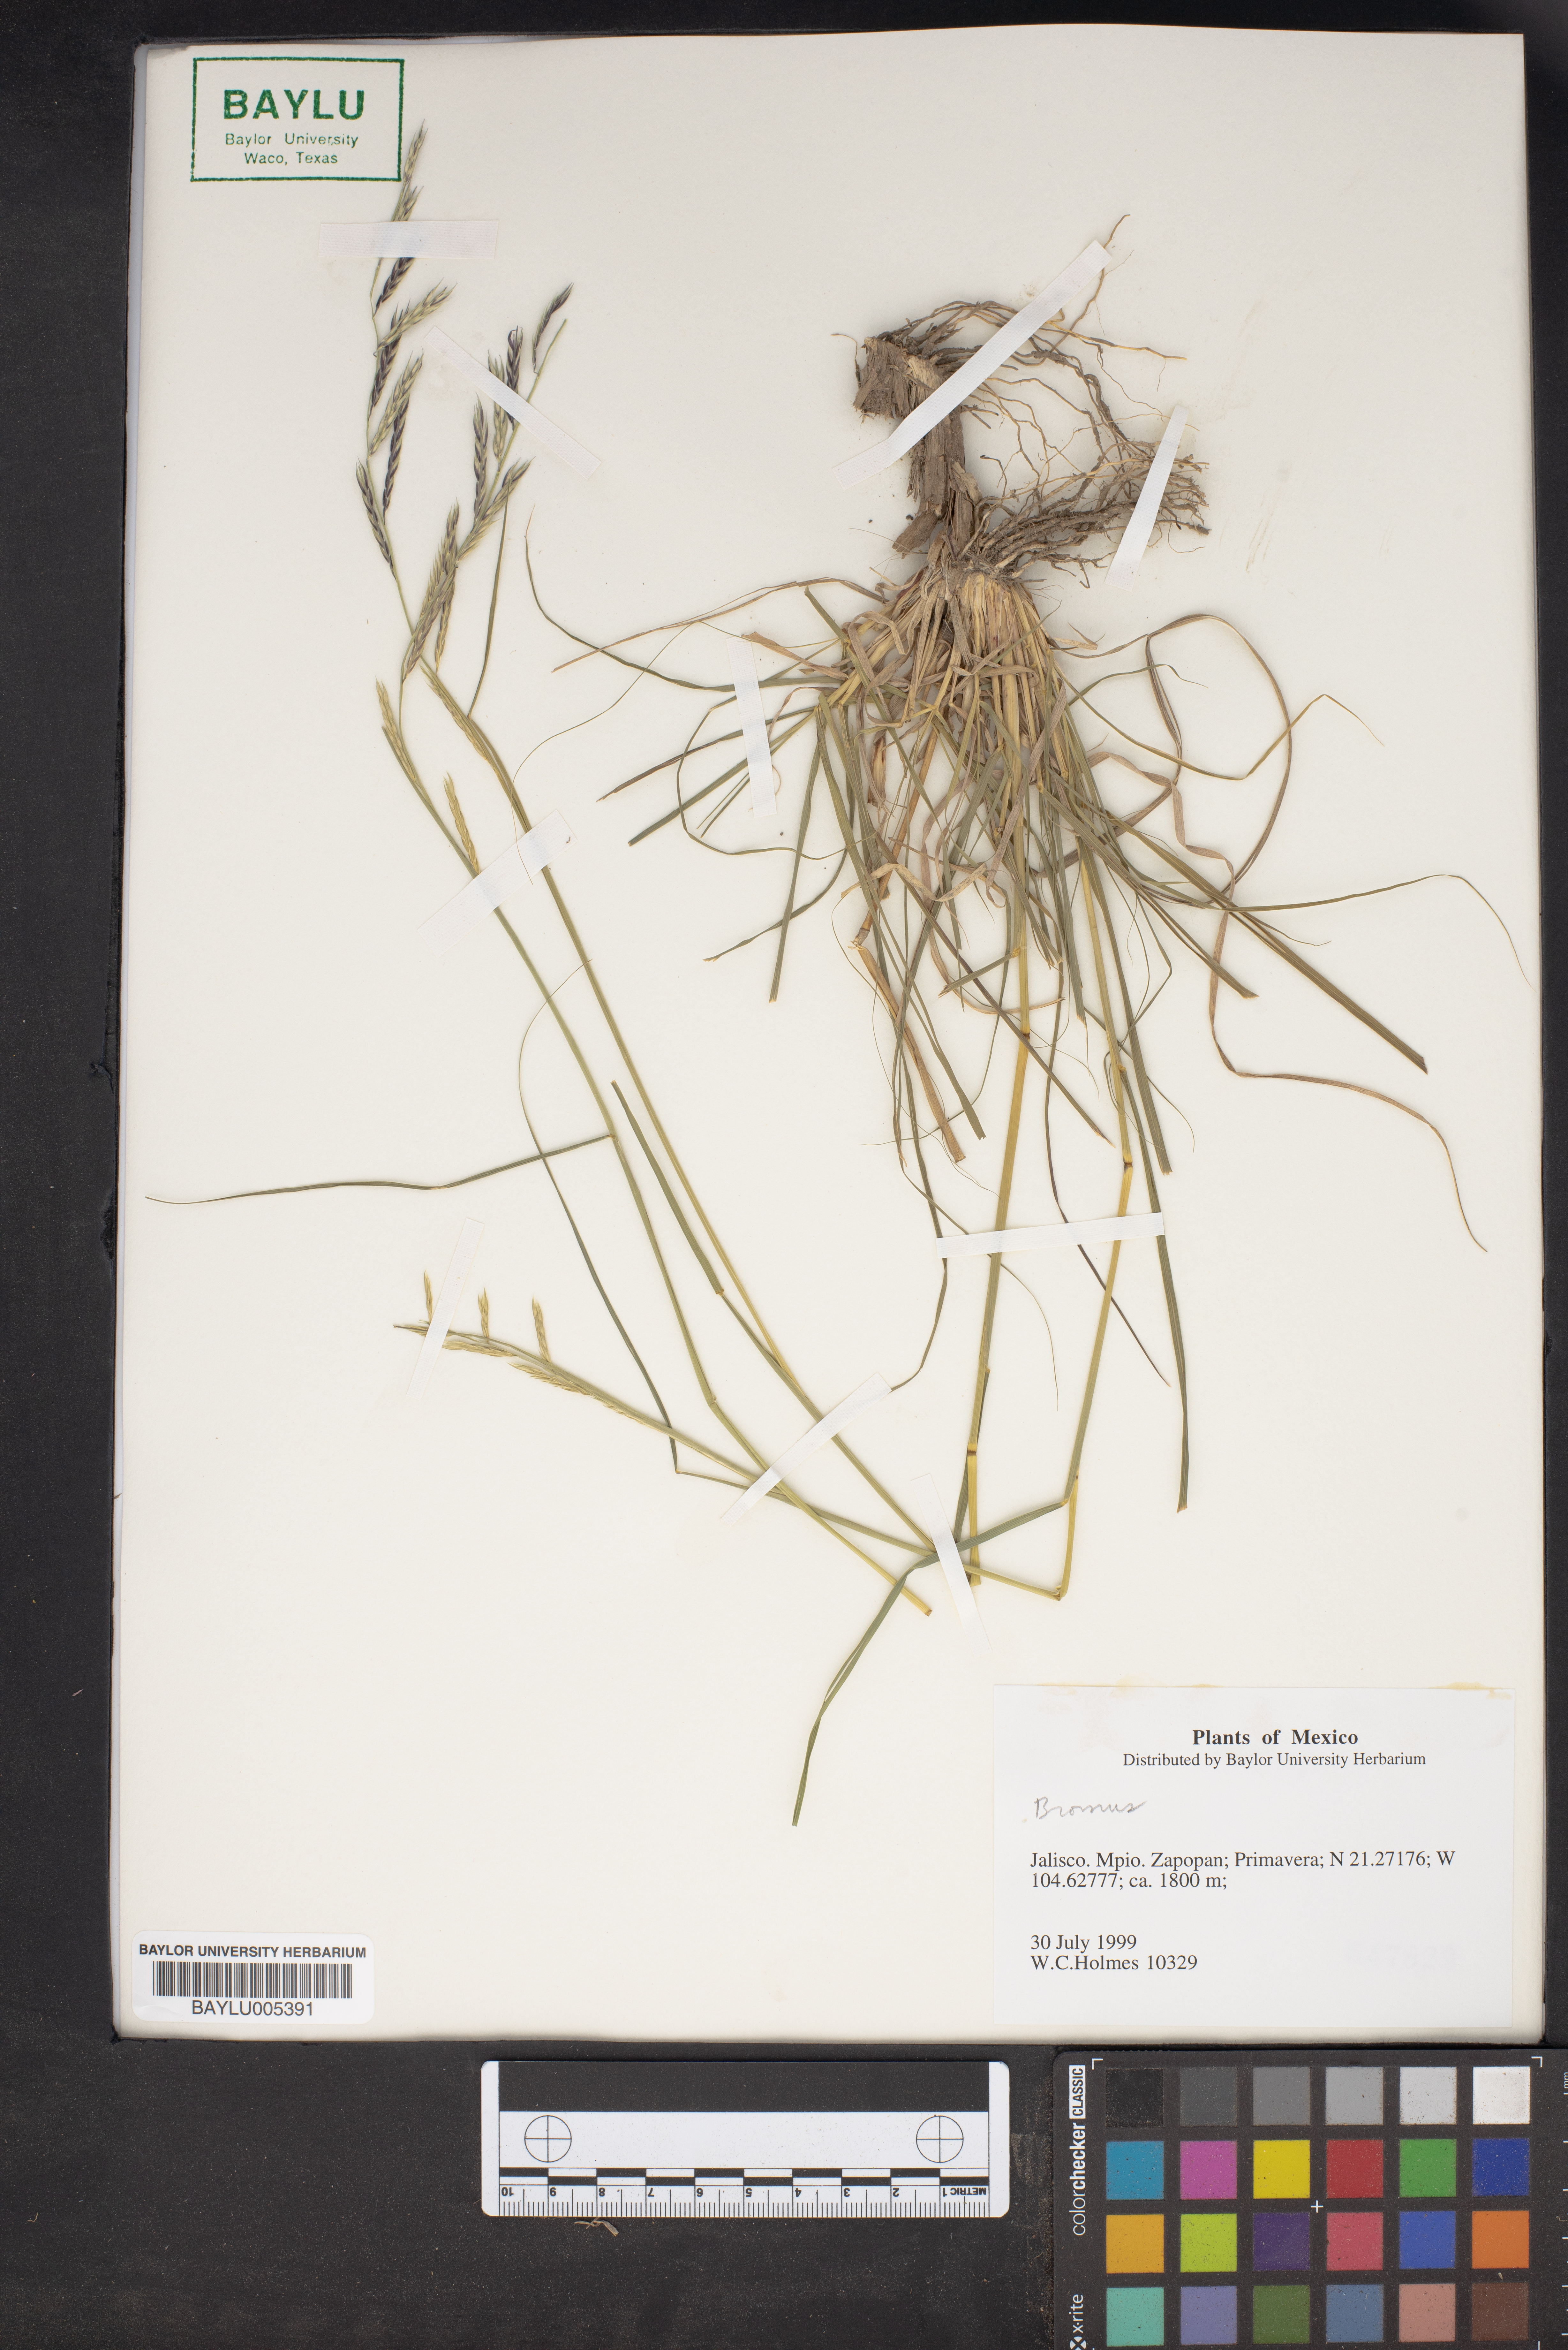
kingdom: Plantae
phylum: Tracheophyta
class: Liliopsida
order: Poales
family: Poaceae
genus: Bromus
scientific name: Bromus
